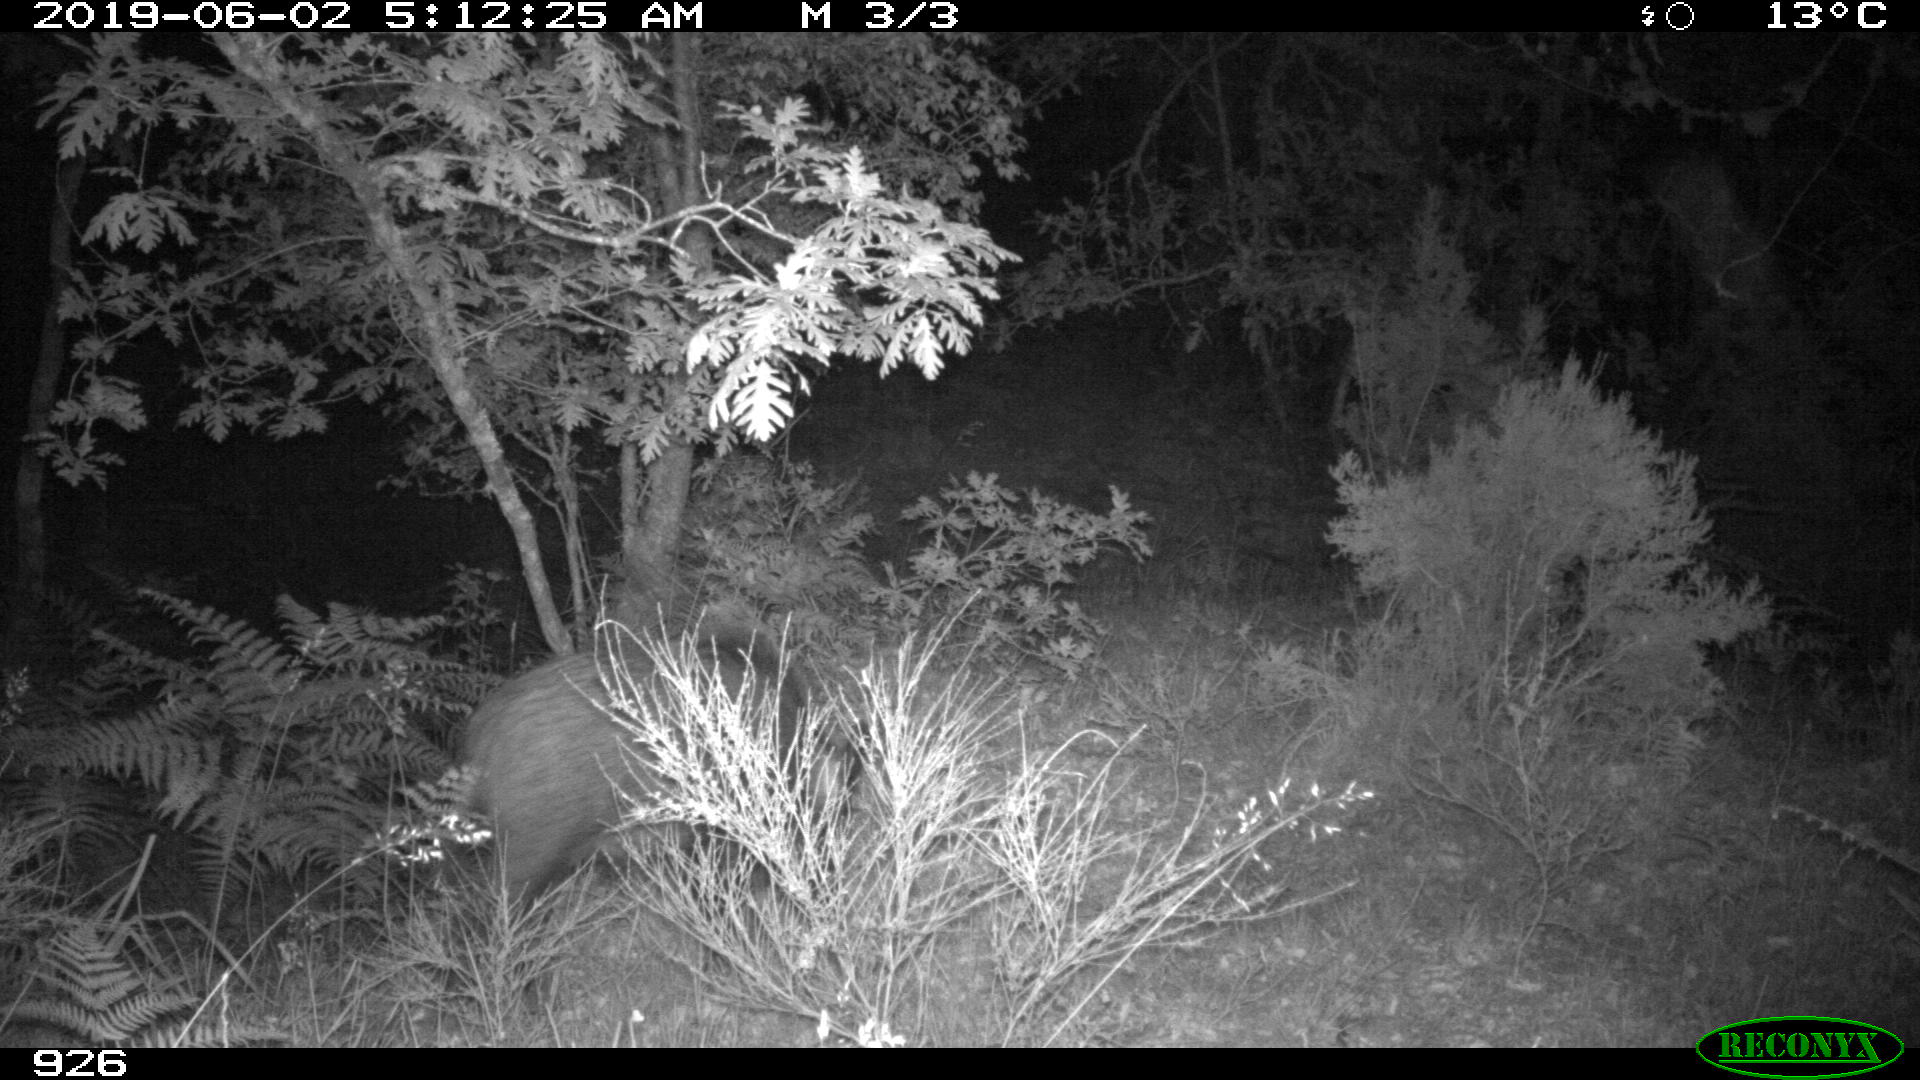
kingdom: Animalia
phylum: Chordata
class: Mammalia
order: Artiodactyla
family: Suidae
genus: Sus
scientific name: Sus scrofa
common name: Wild boar
